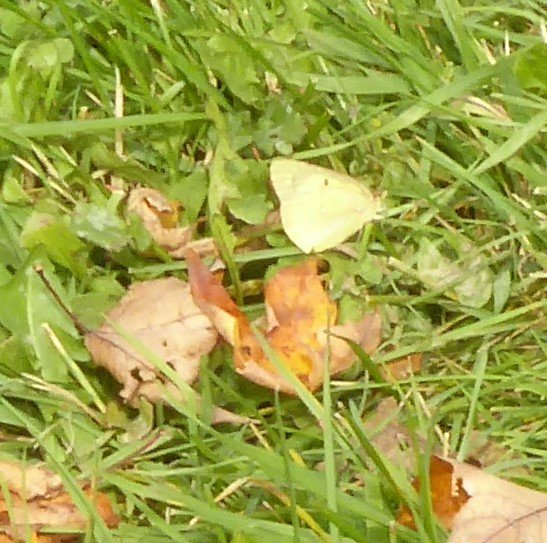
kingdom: Animalia
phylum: Arthropoda
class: Insecta
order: Lepidoptera
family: Pieridae
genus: Colias
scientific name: Colias philodice
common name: Clouded Sulphur
